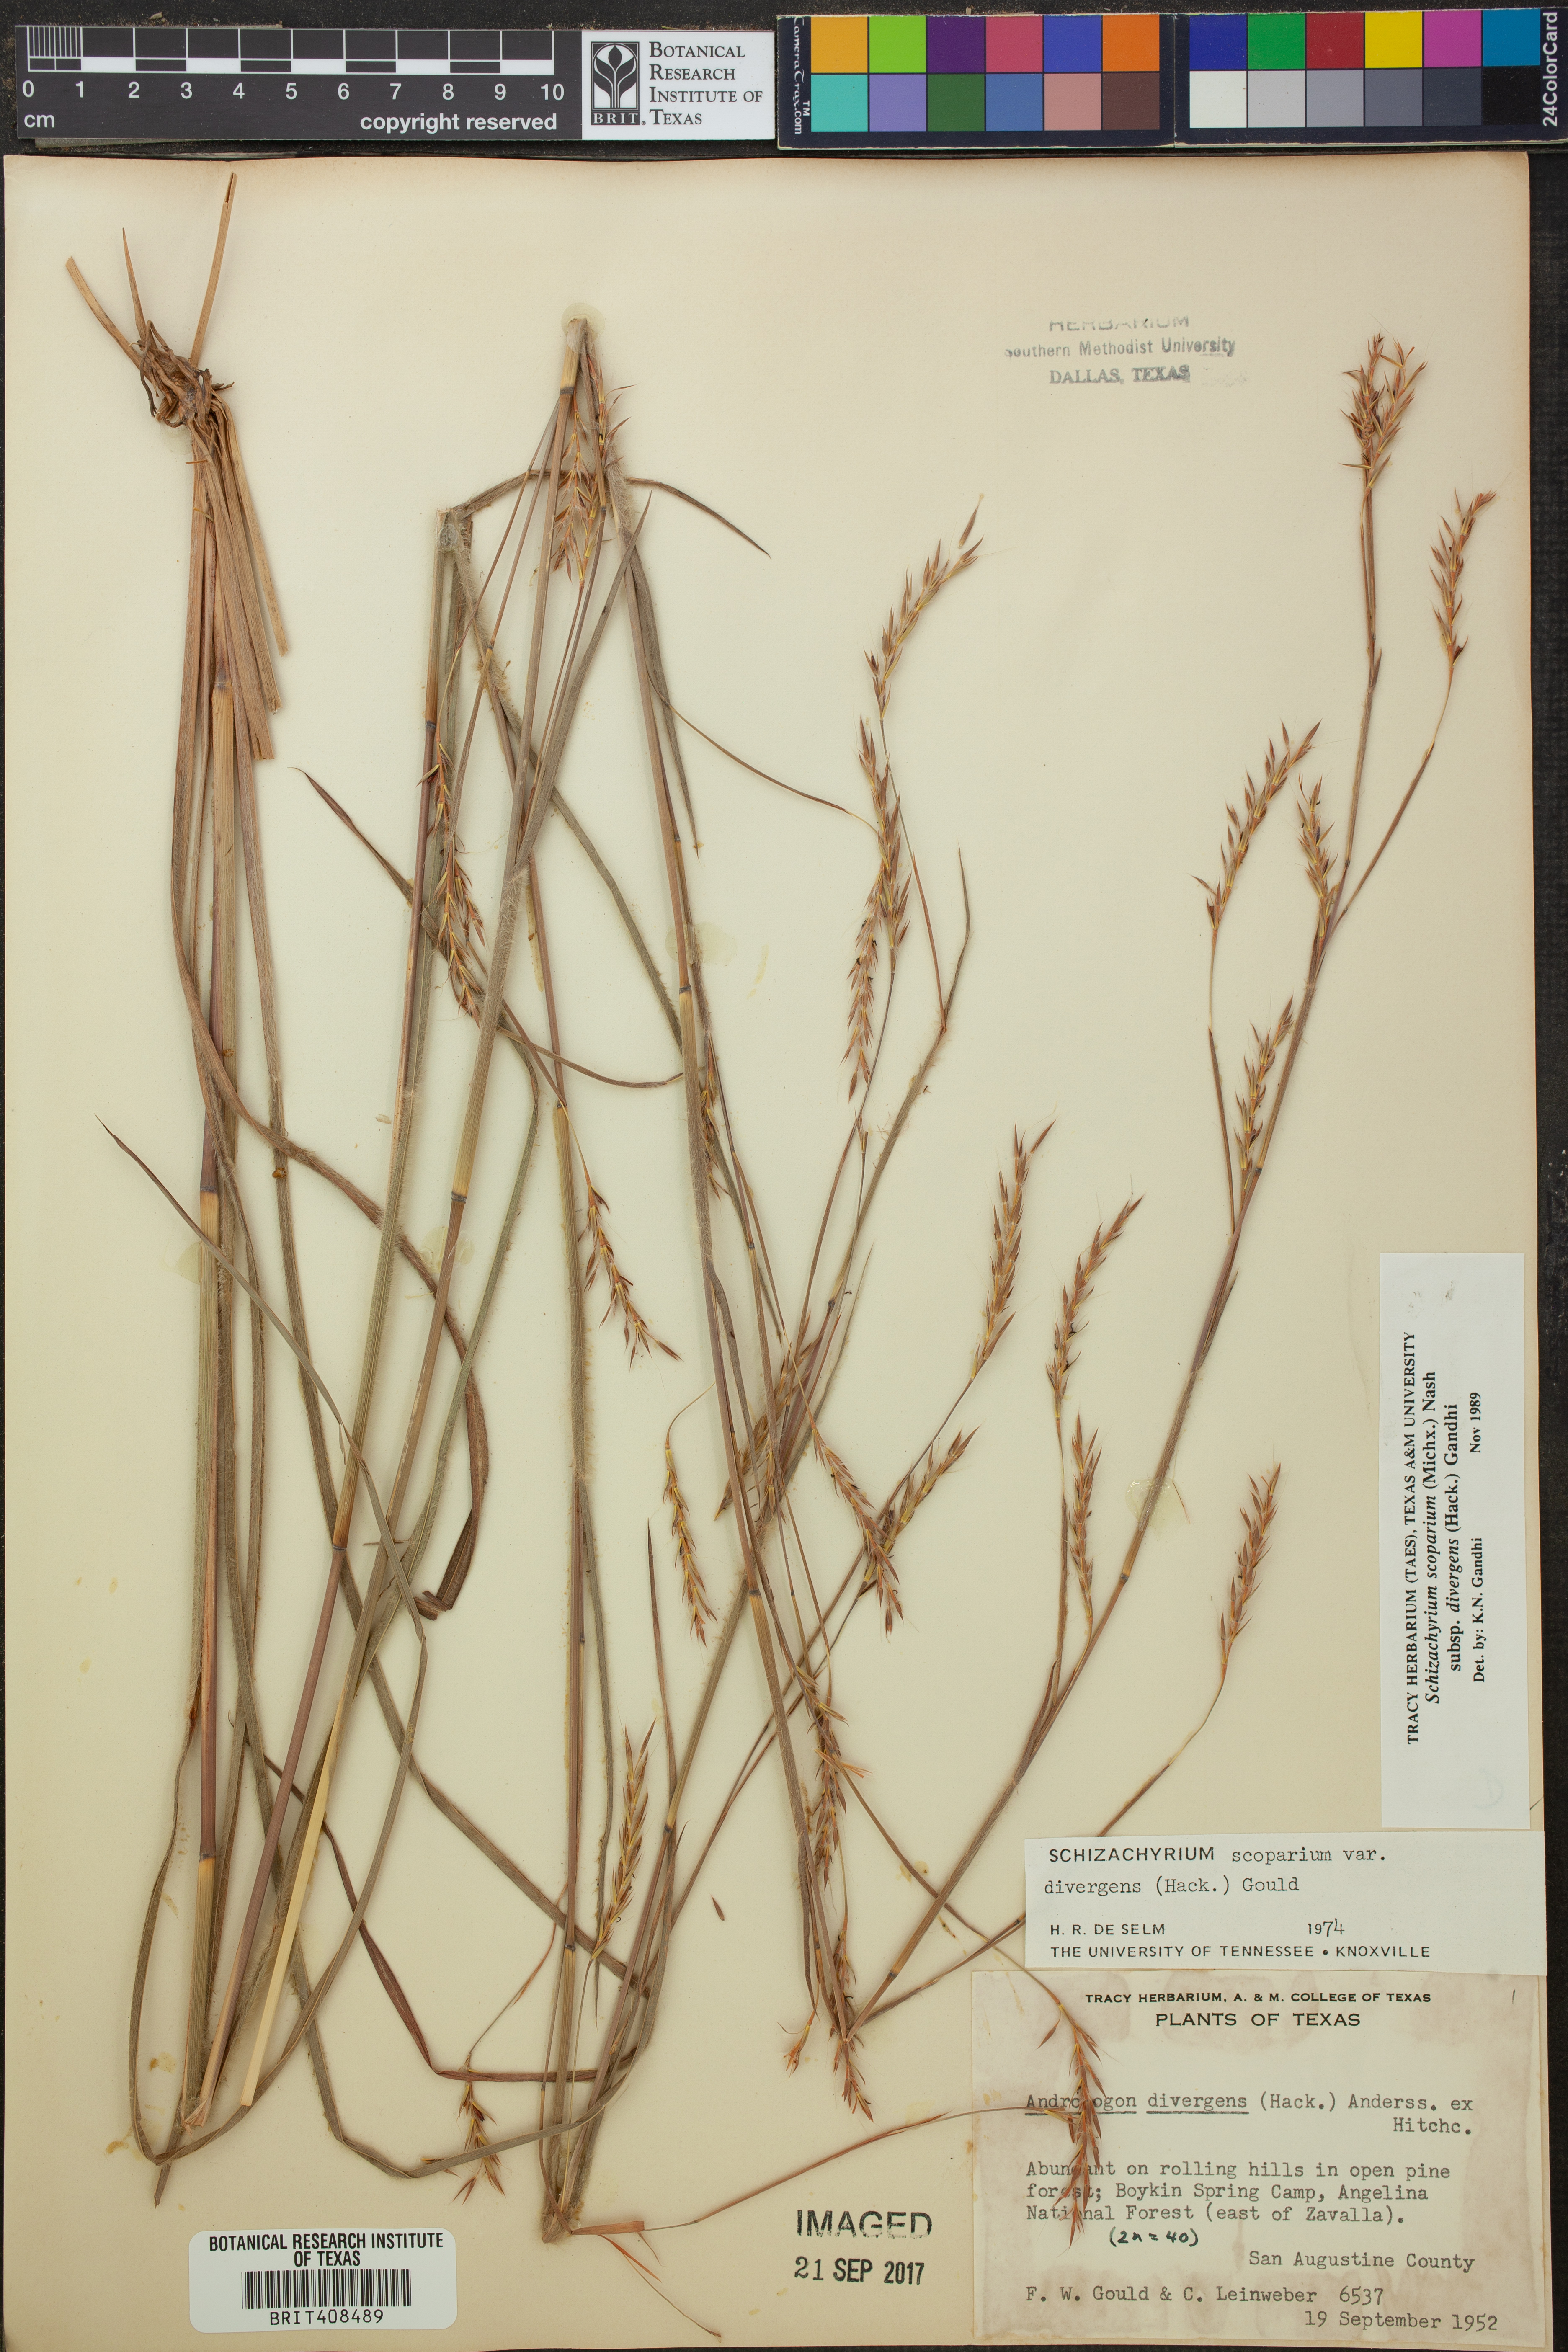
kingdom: Plantae
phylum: Tracheophyta
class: Liliopsida
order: Poales
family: Poaceae
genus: Schizachyrium
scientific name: Schizachyrium scoparium
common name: Little bluestem
